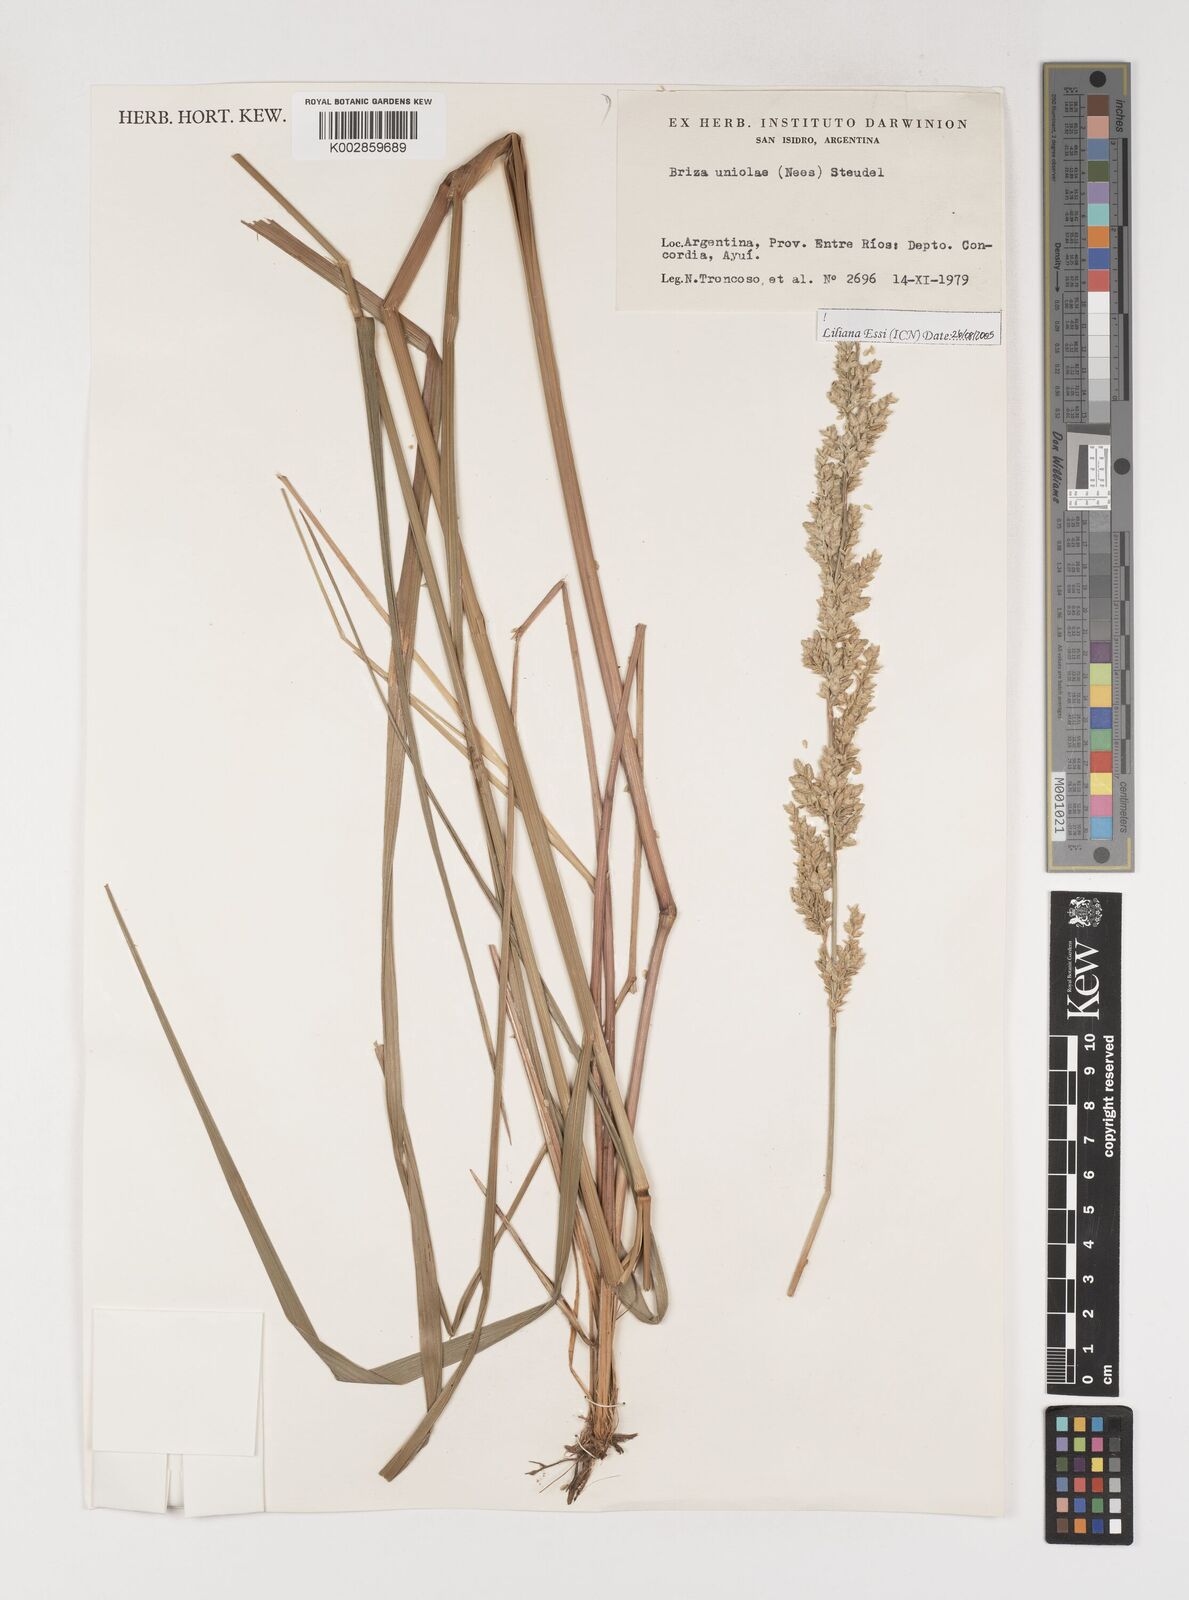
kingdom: Plantae
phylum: Tracheophyta
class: Liliopsida
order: Poales
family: Poaceae
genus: Poidium
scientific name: Poidium uniolae
